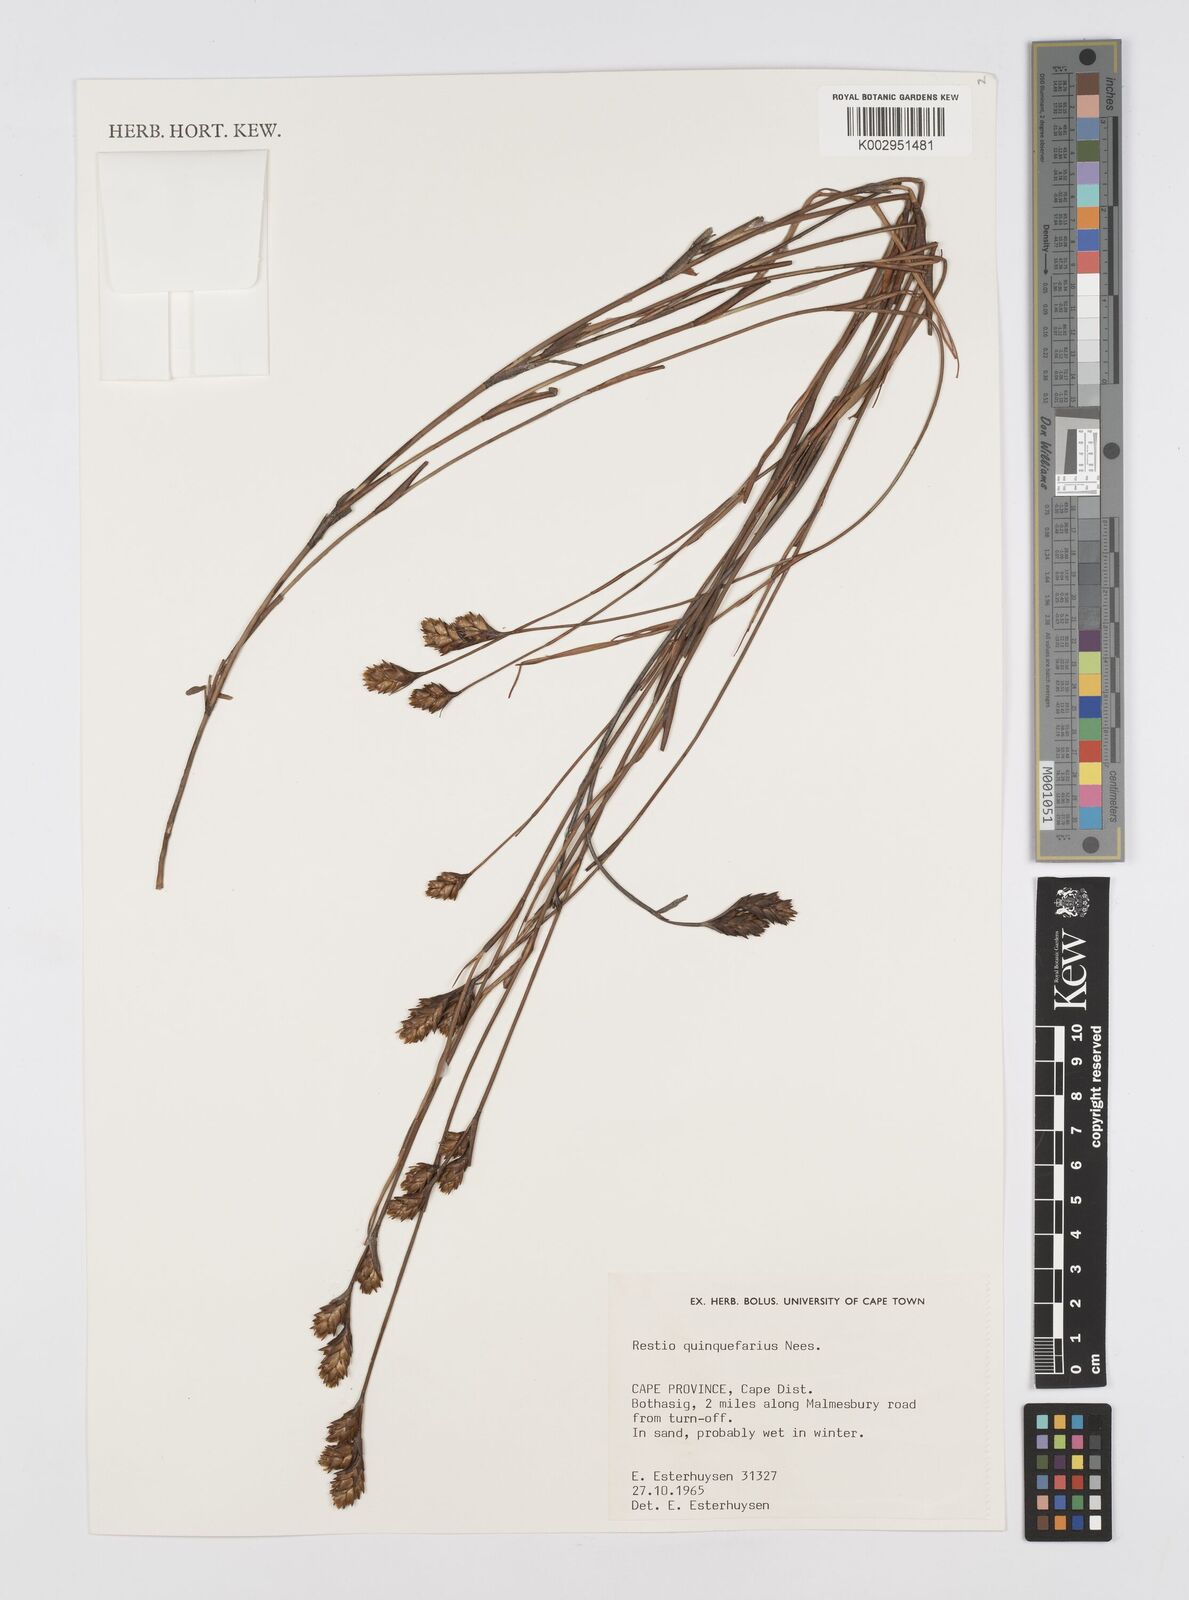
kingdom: Plantae
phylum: Tracheophyta
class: Liliopsida
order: Poales
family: Restionaceae
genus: Restio
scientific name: Restio quinquefarius
